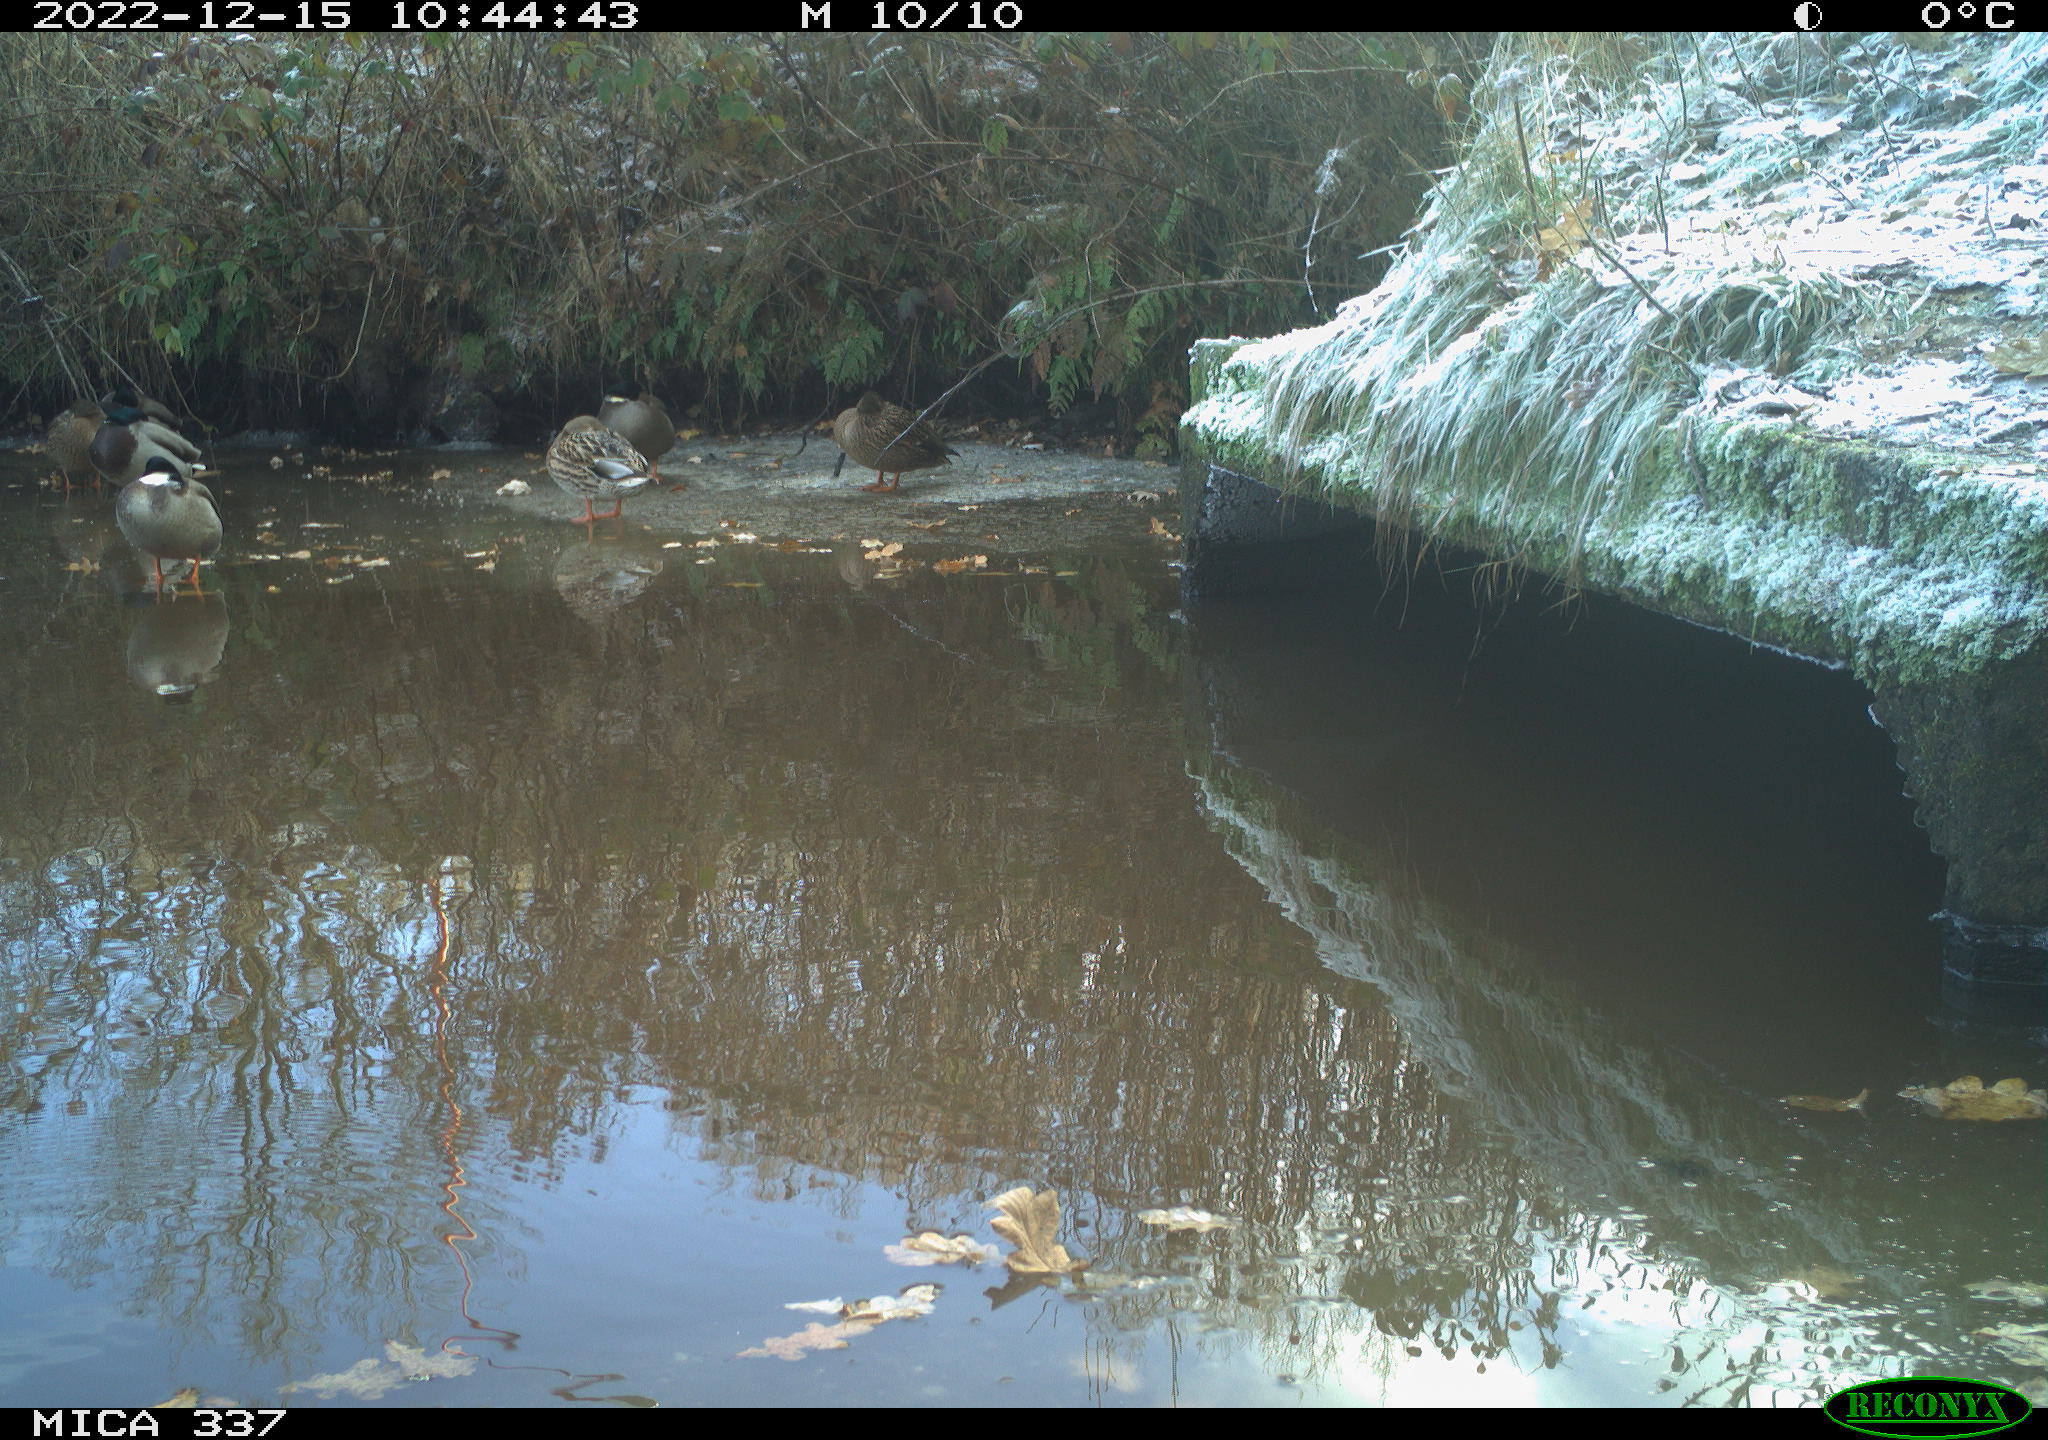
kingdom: Animalia
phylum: Chordata
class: Aves
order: Anseriformes
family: Anatidae
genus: Anas
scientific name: Anas platyrhynchos
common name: Mallard
